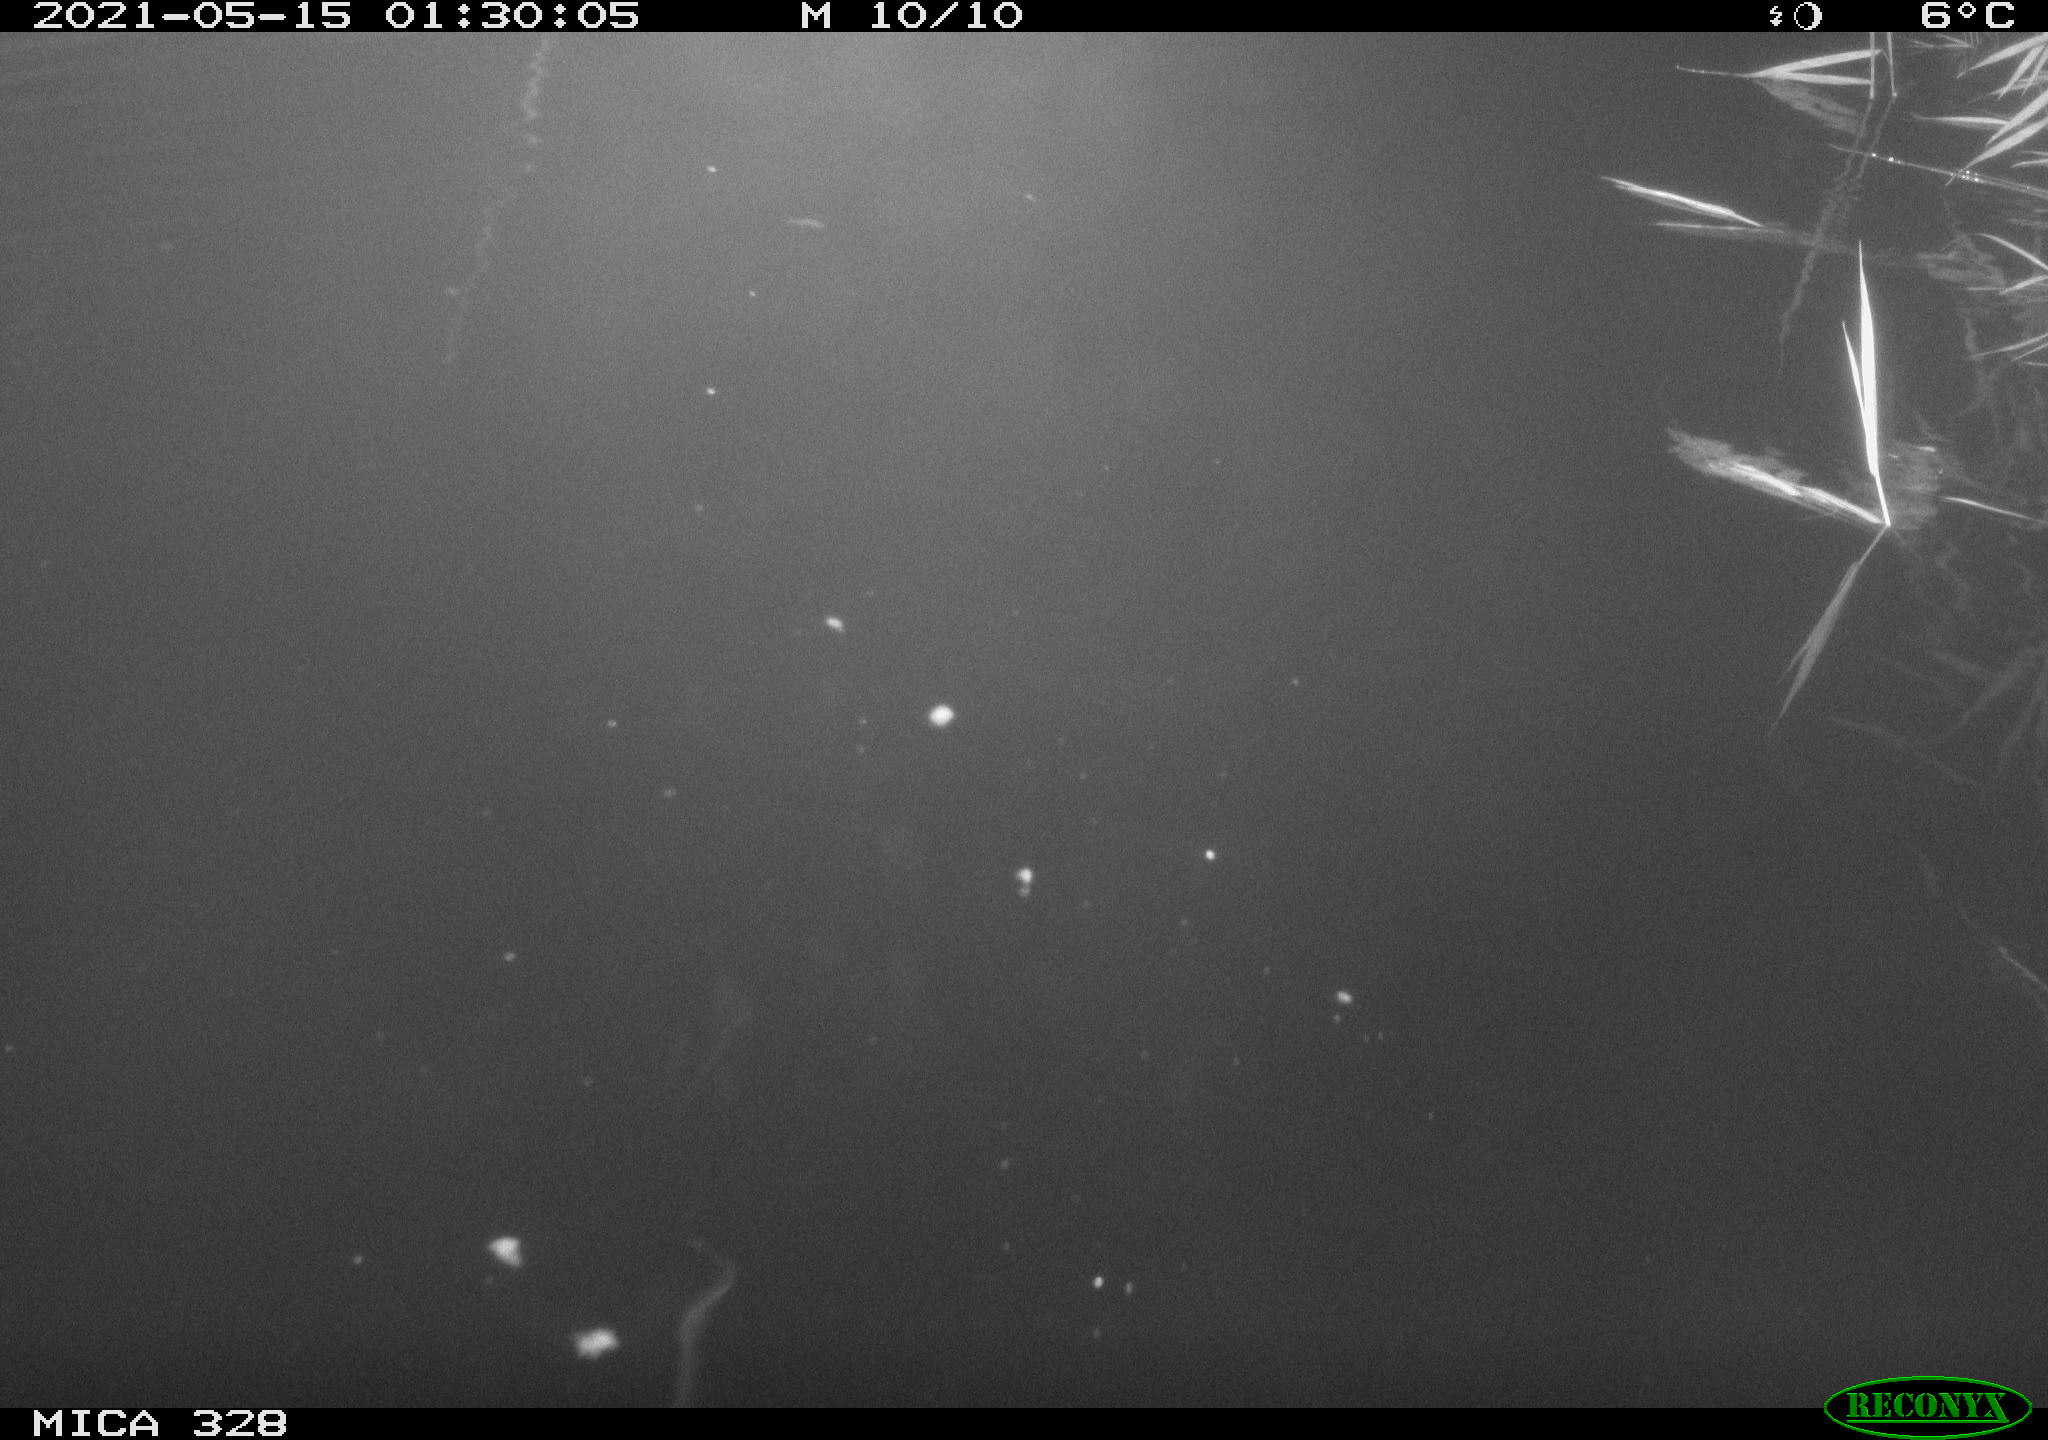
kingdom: Animalia
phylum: Chordata
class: Aves
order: Anseriformes
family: Anatidae
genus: Anas
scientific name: Anas platyrhynchos
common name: Mallard
